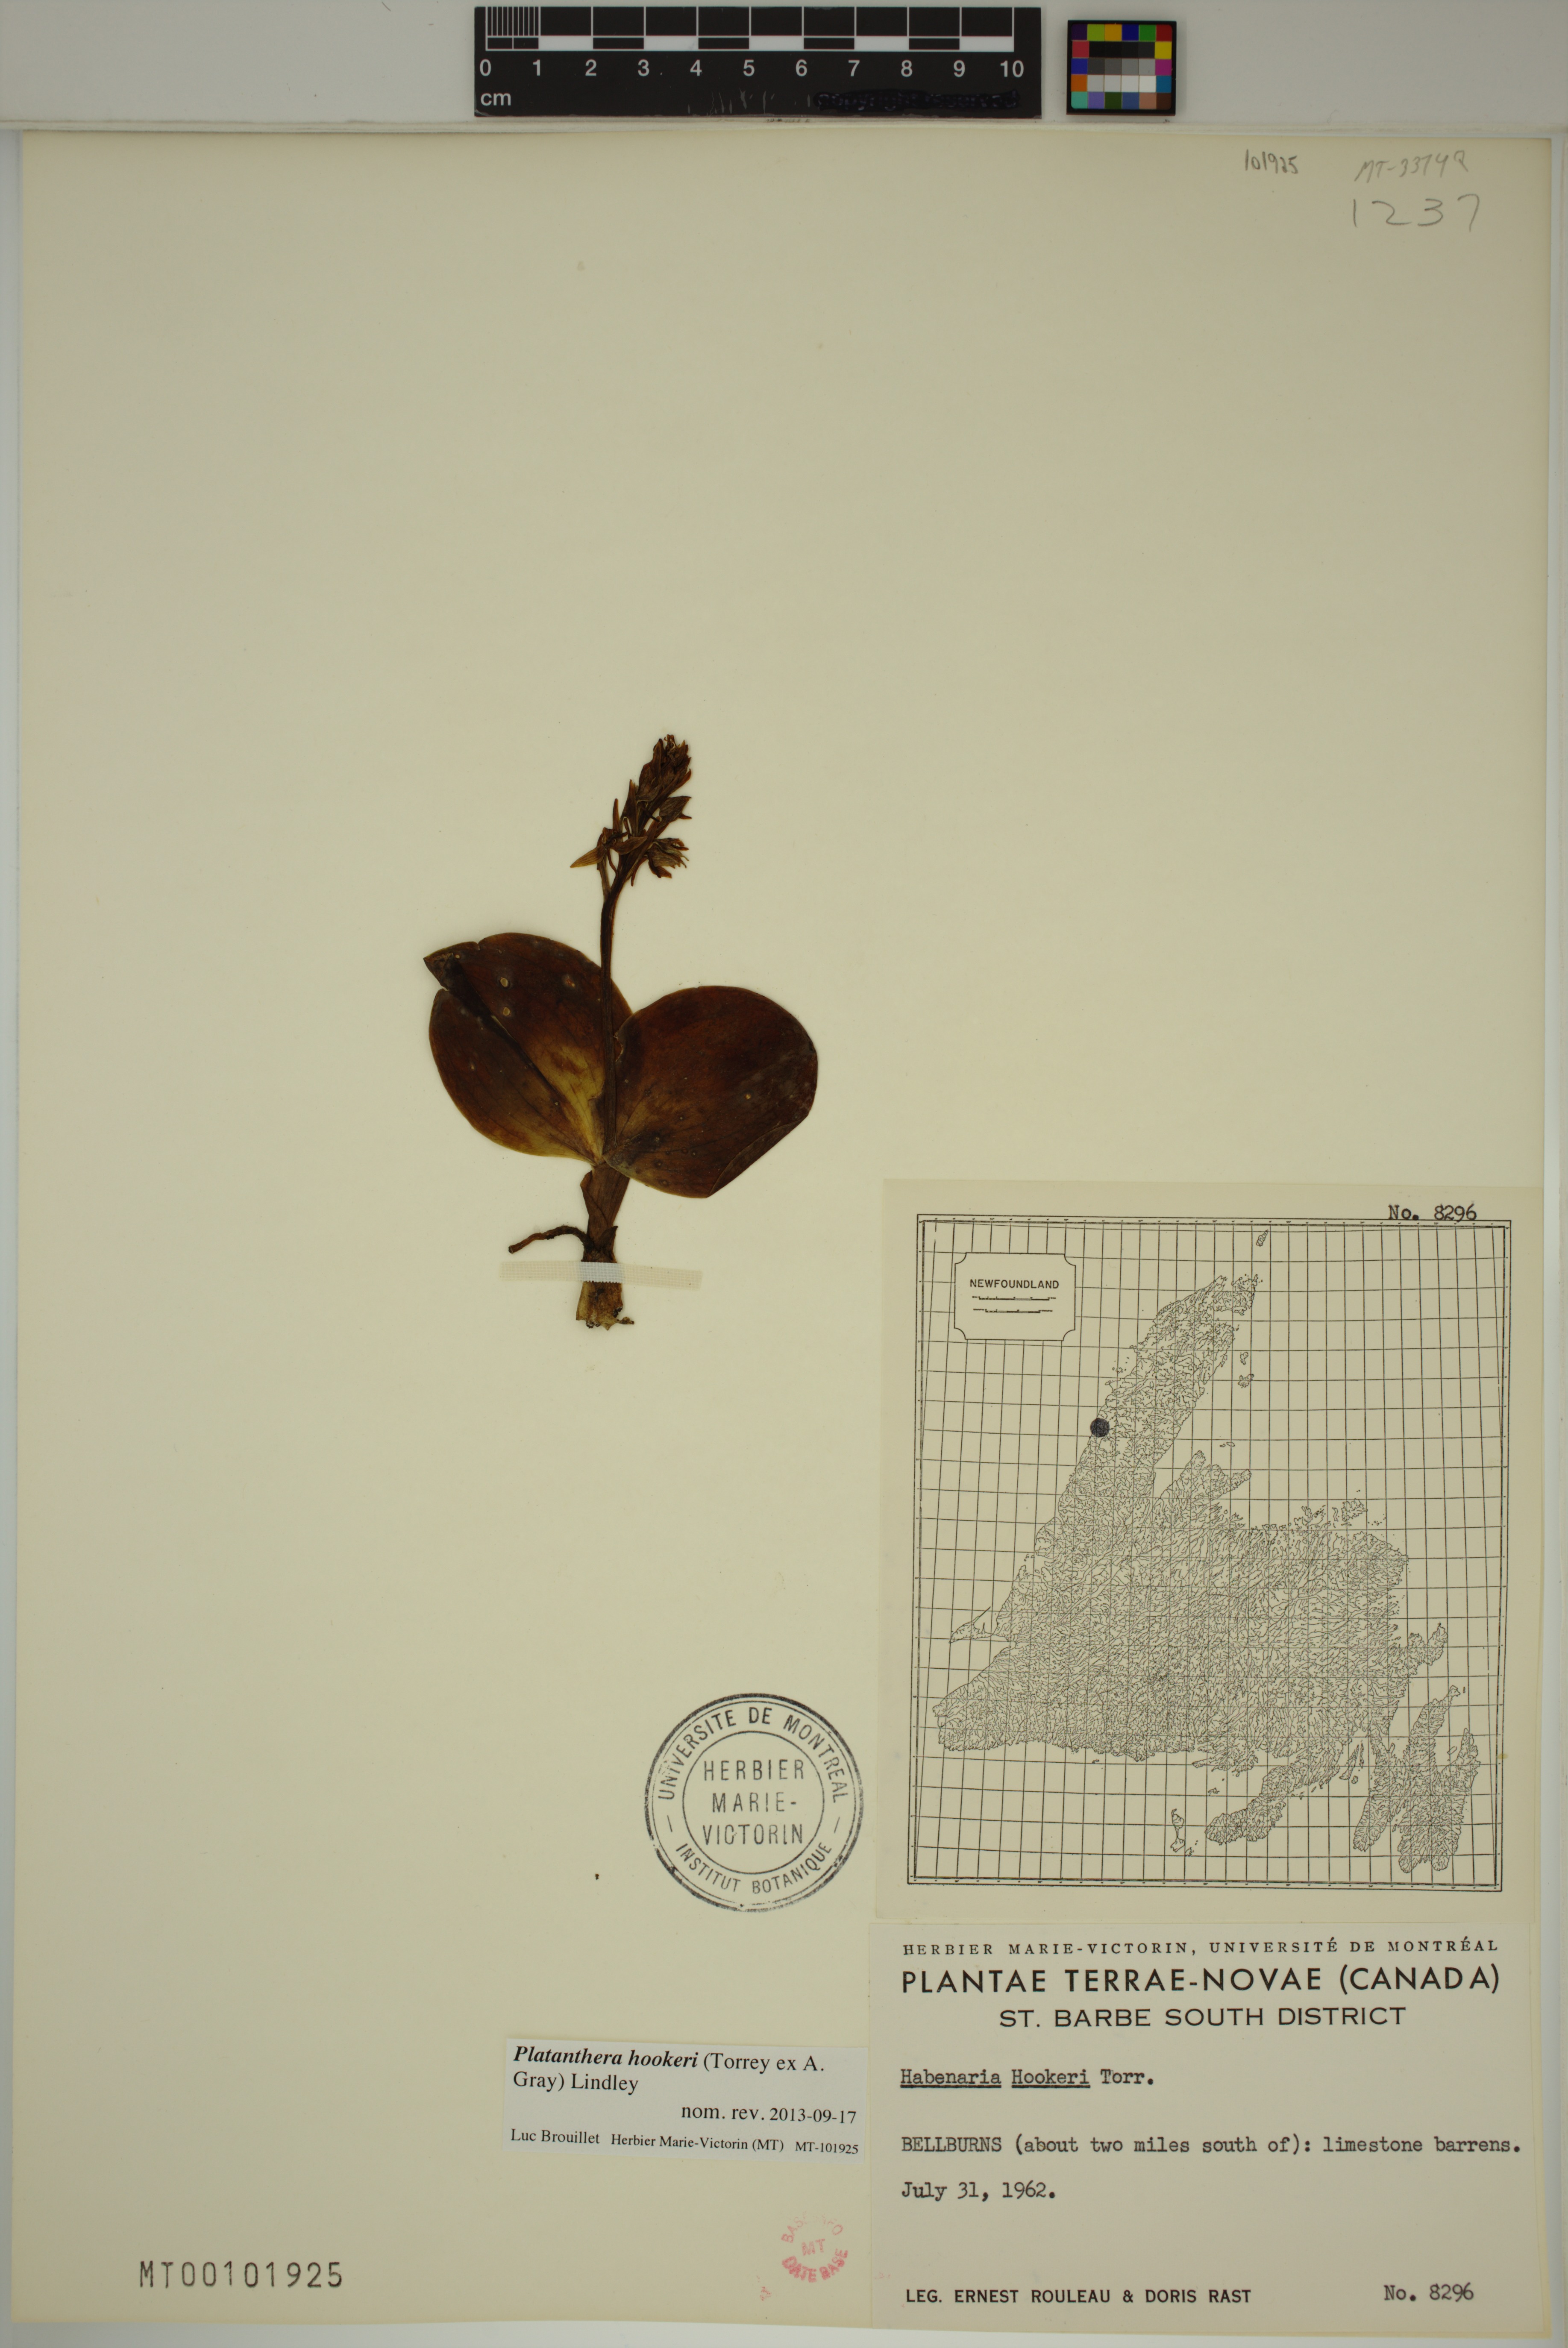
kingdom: Plantae
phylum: Tracheophyta
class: Liliopsida
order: Asparagales
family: Orchidaceae
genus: Platanthera
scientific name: Platanthera hookeri
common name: Hooker's orchid
